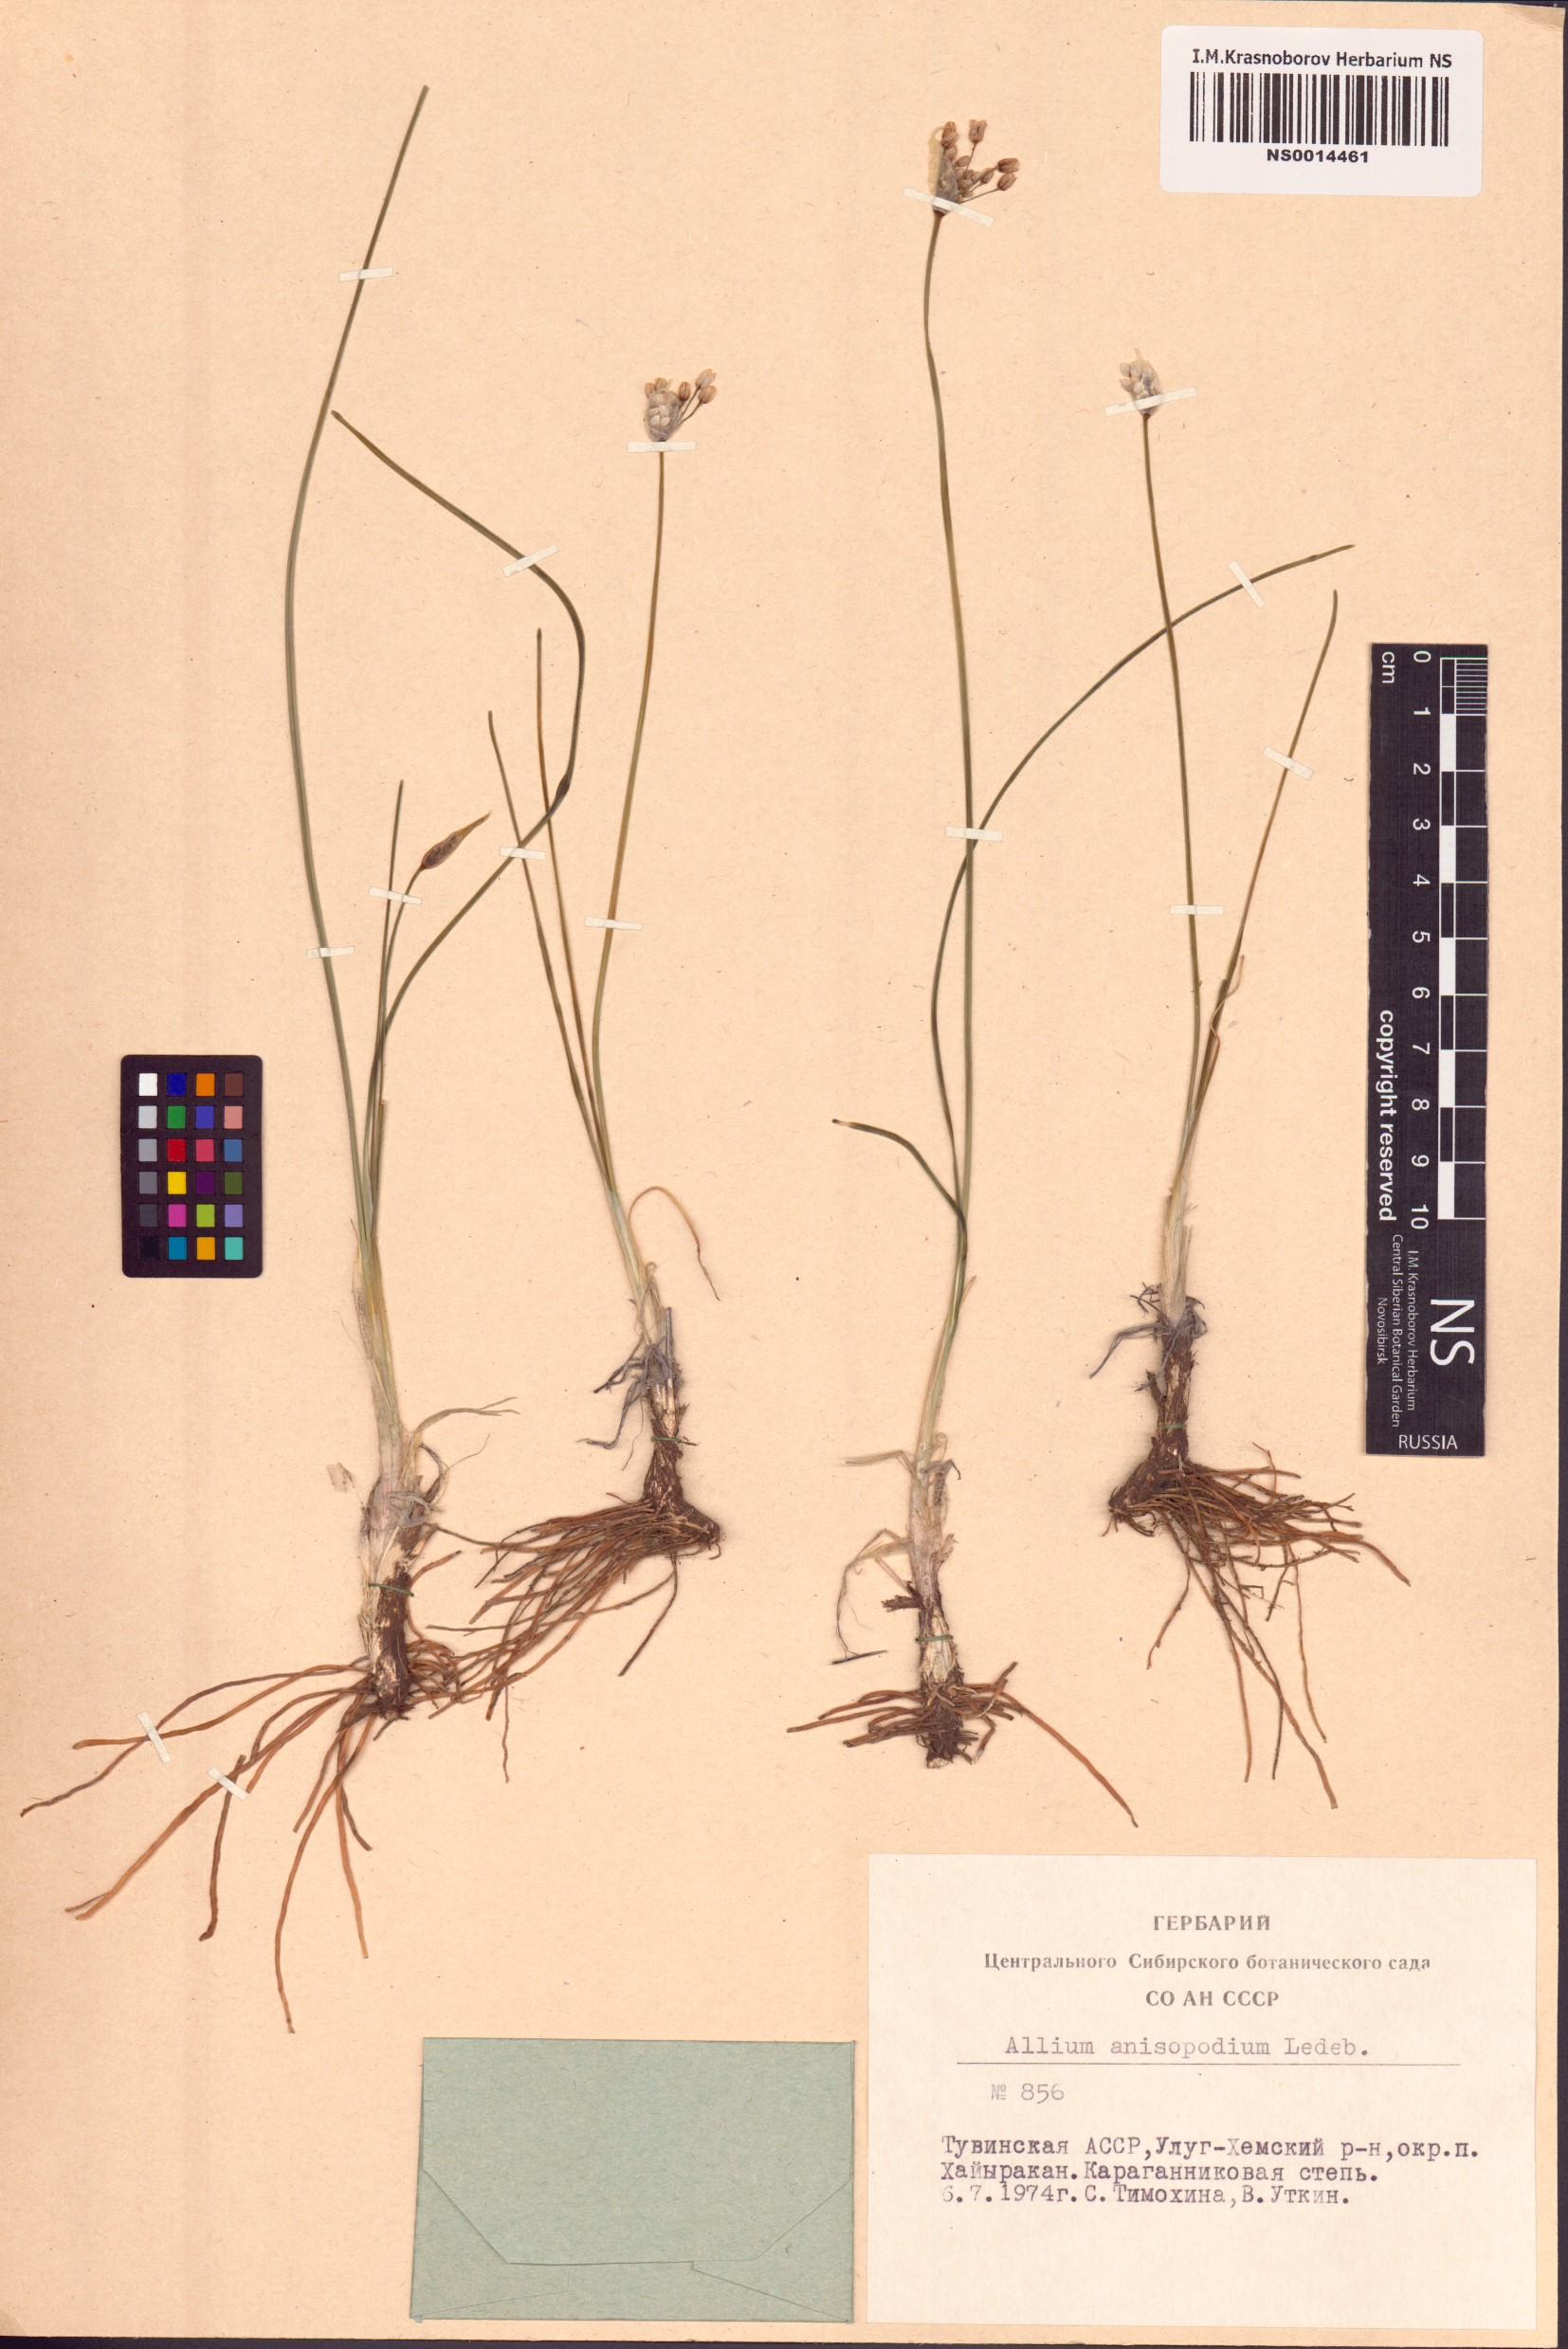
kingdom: Plantae
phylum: Tracheophyta
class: Liliopsida
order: Asparagales
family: Amaryllidaceae
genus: Allium
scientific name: Allium anisopodium
